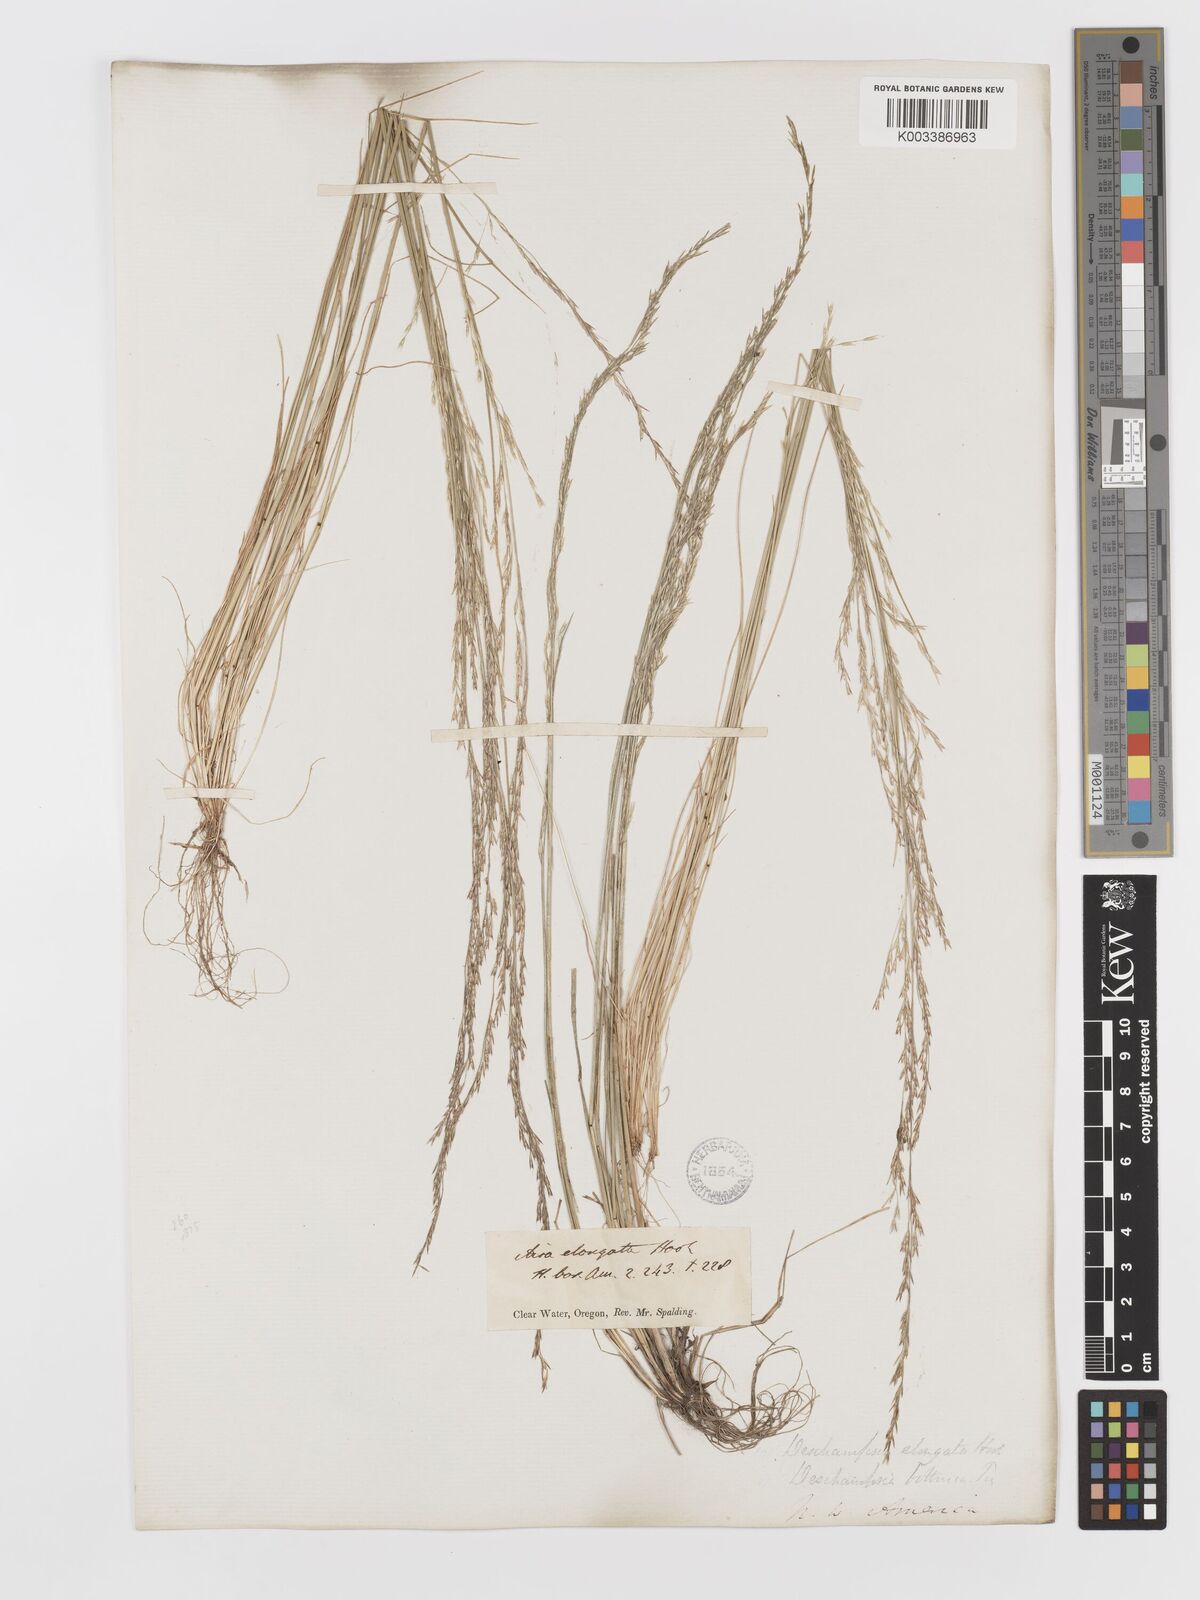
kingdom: Plantae
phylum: Tracheophyta
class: Liliopsida
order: Poales
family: Poaceae
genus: Deschampsia
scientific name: Deschampsia elongata
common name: Slender hairgrass
